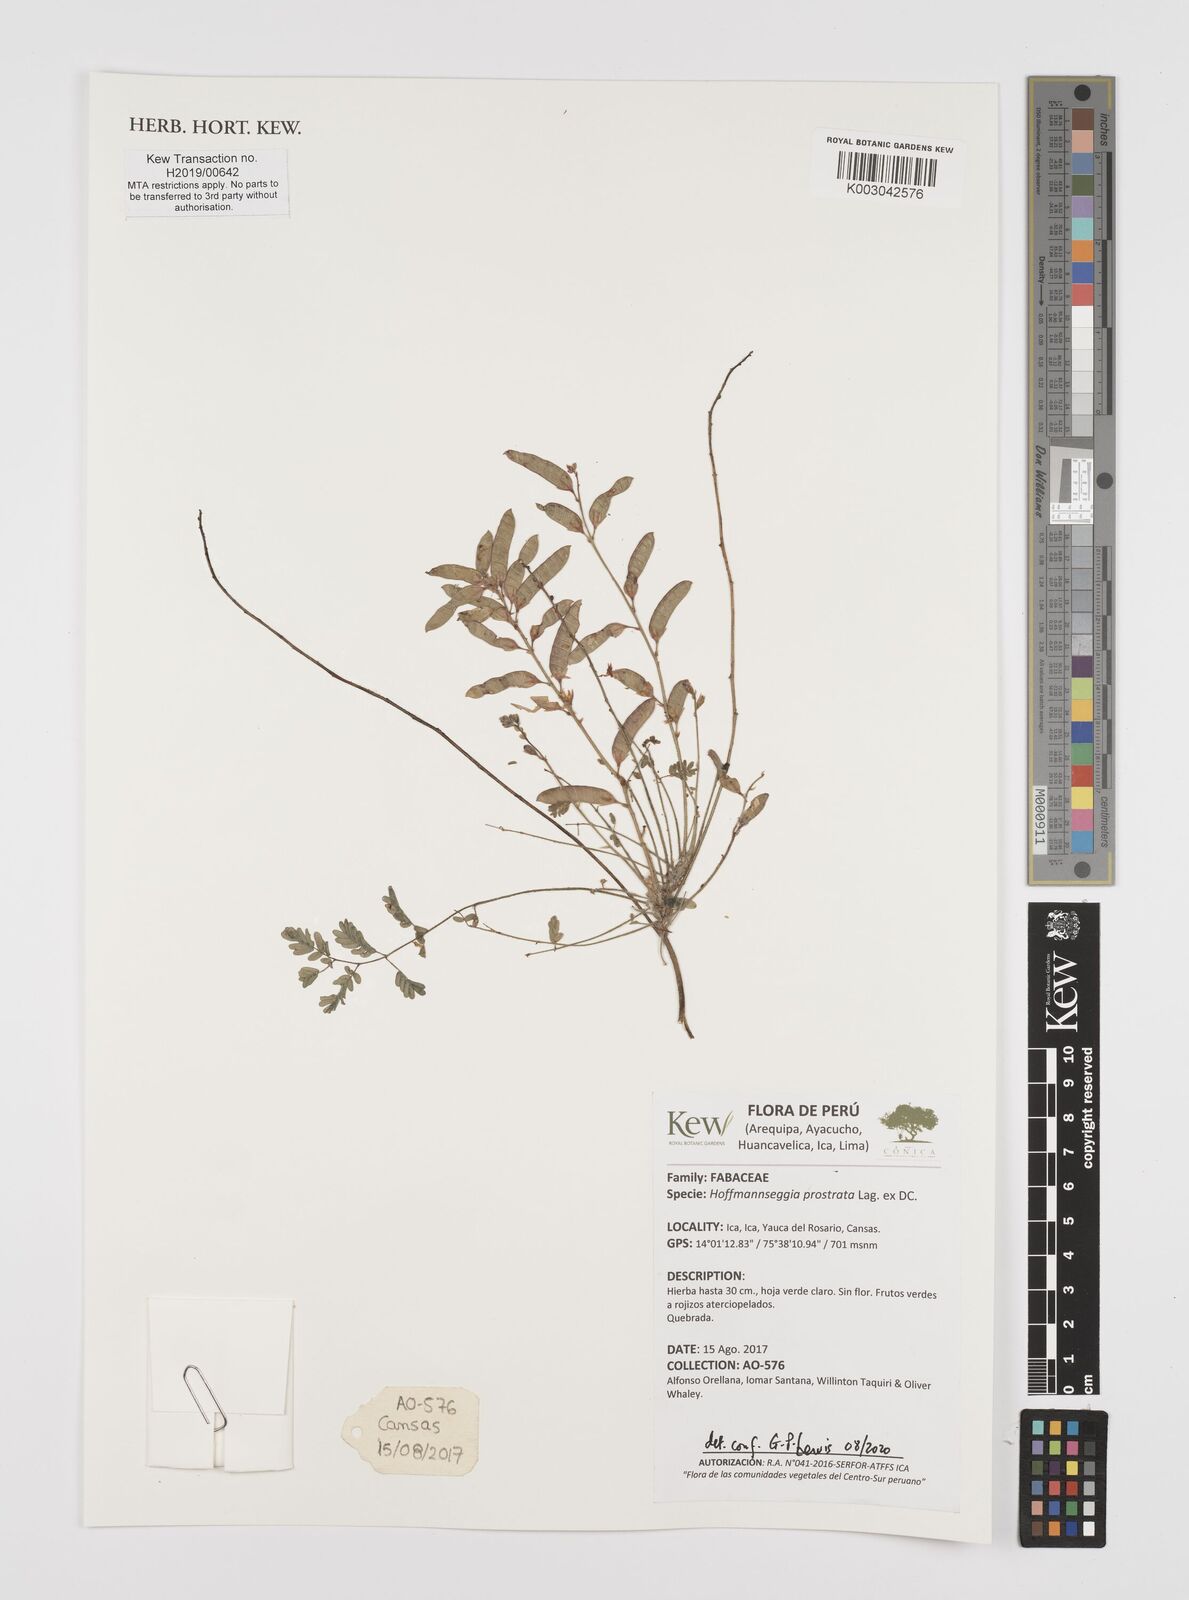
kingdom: Plantae
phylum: Tracheophyta
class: Magnoliopsida
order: Fabales
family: Fabaceae
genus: Hoffmannseggia
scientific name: Hoffmannseggia prostrata
